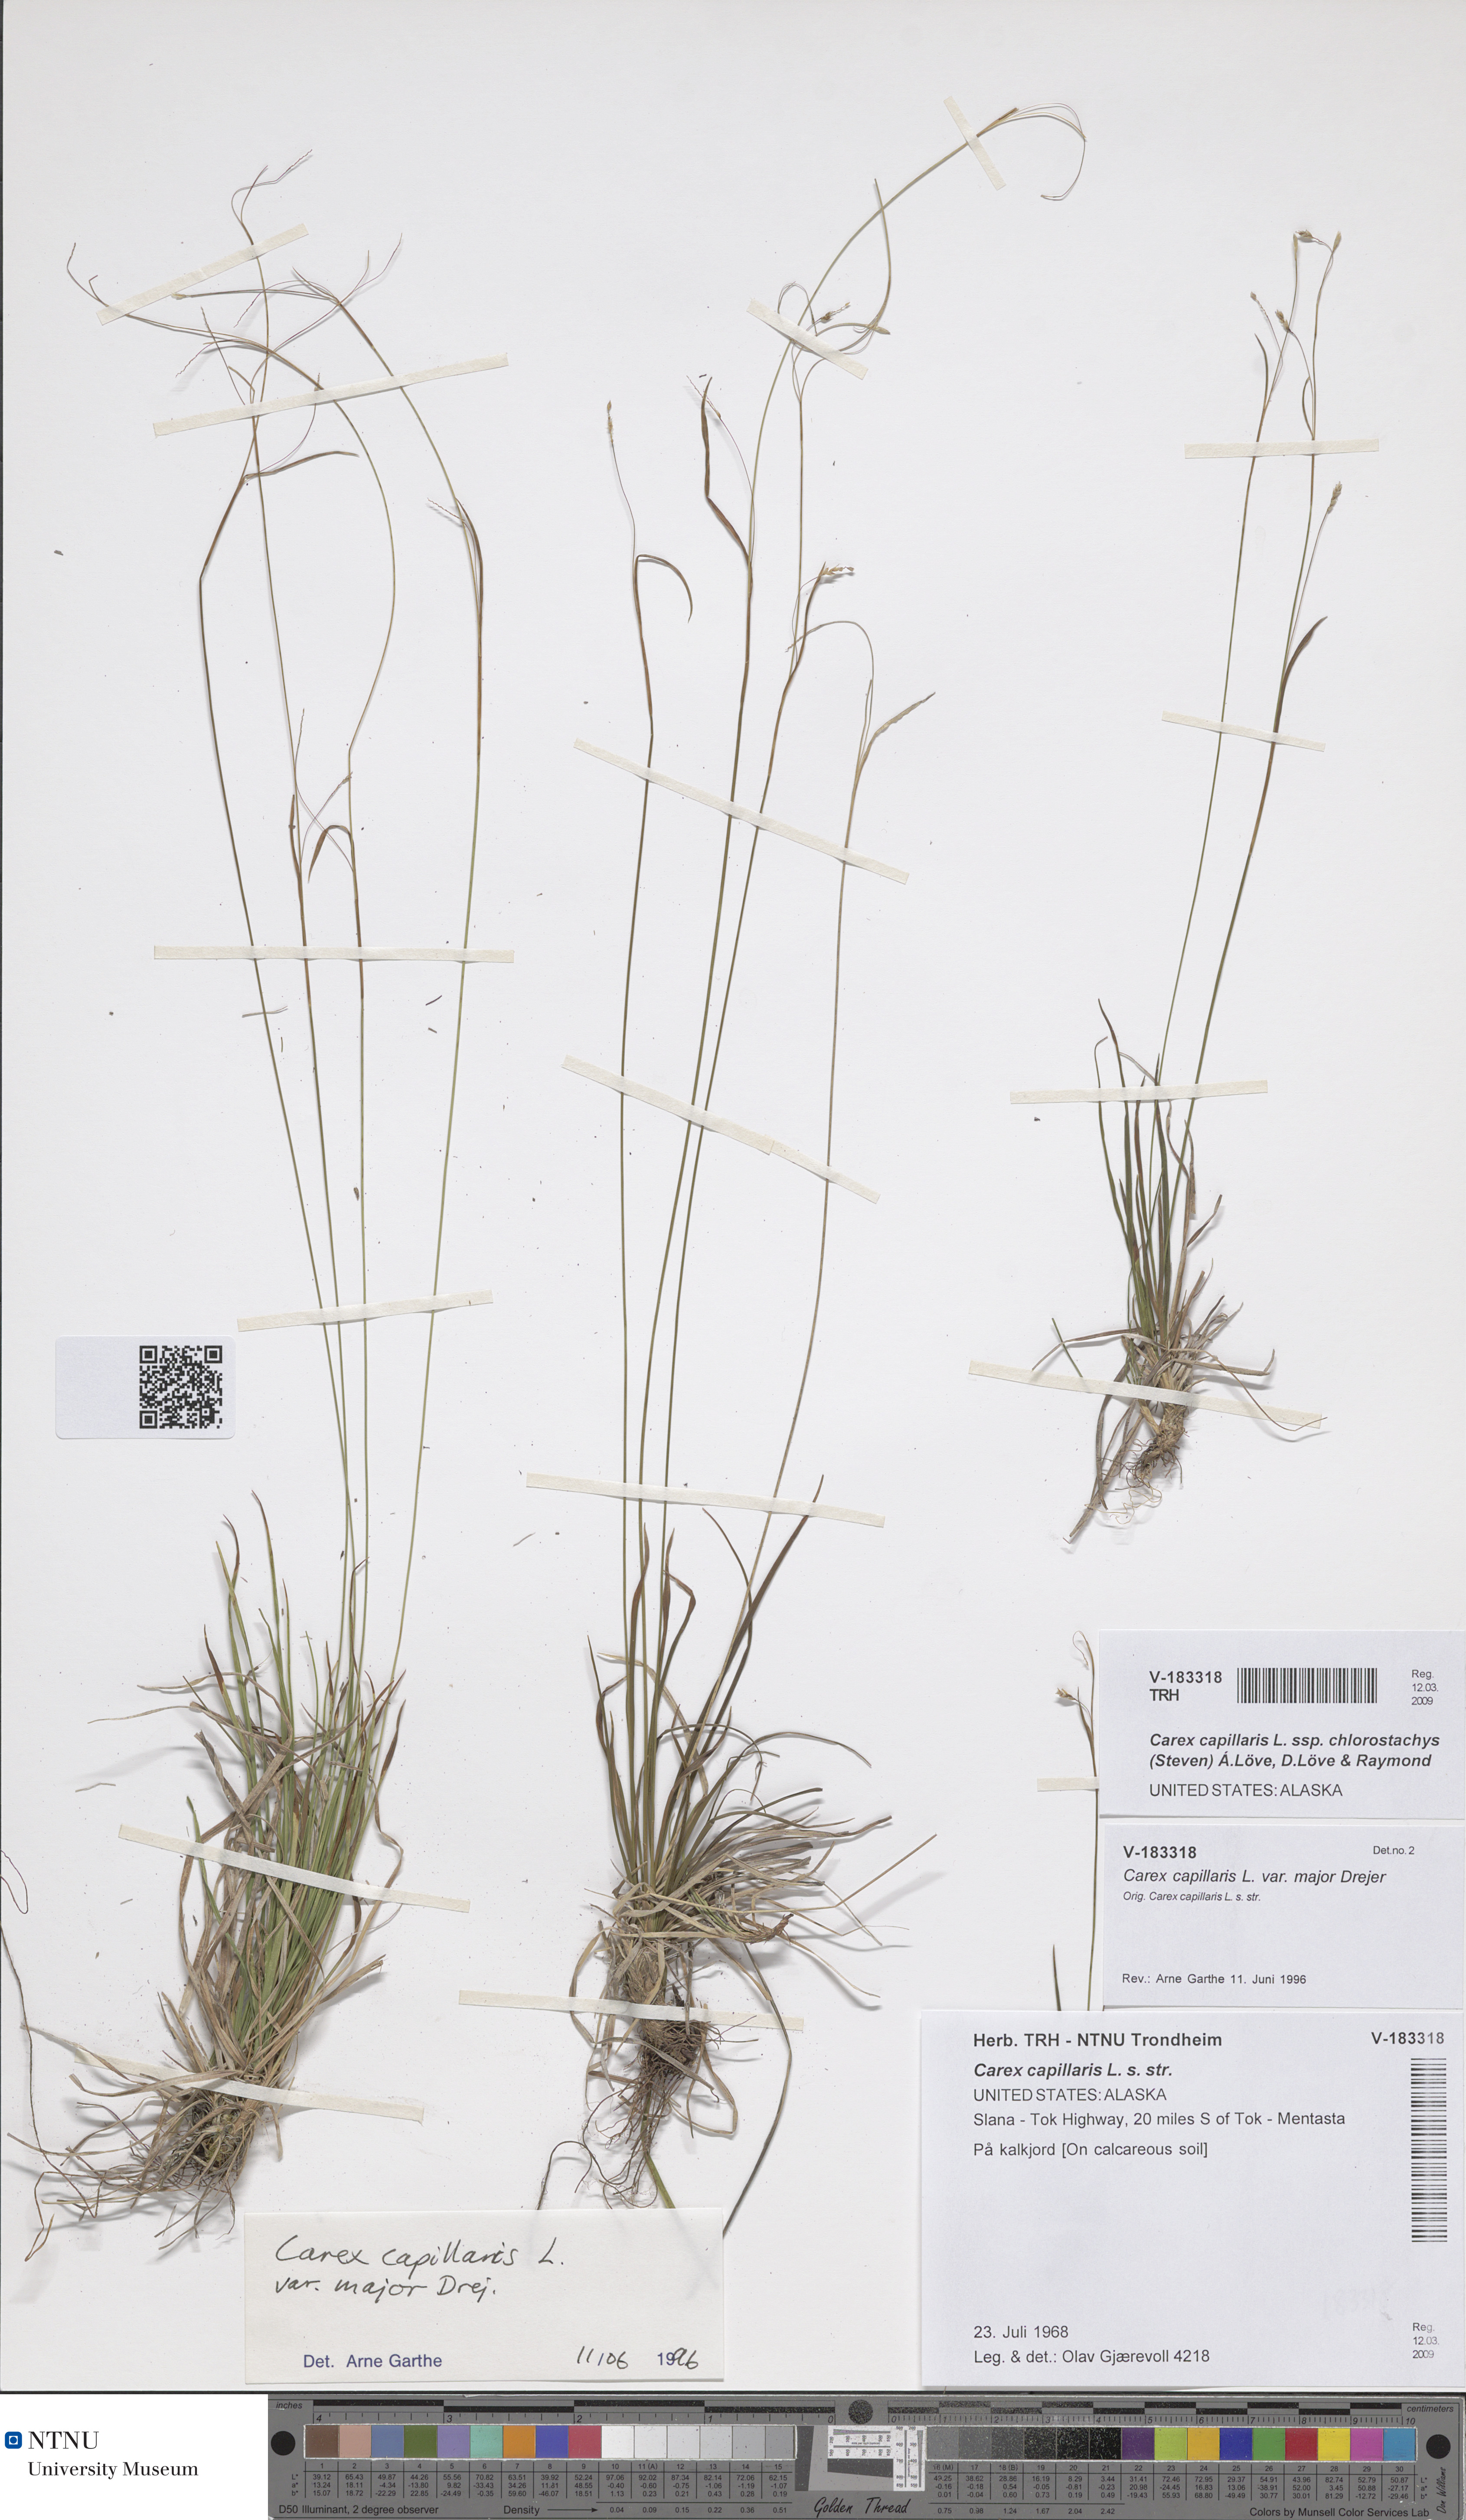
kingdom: Plantae
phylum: Tracheophyta
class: Liliopsida
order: Poales
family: Cyperaceae
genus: Carex
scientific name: Carex capillaris
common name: Hair sedge
